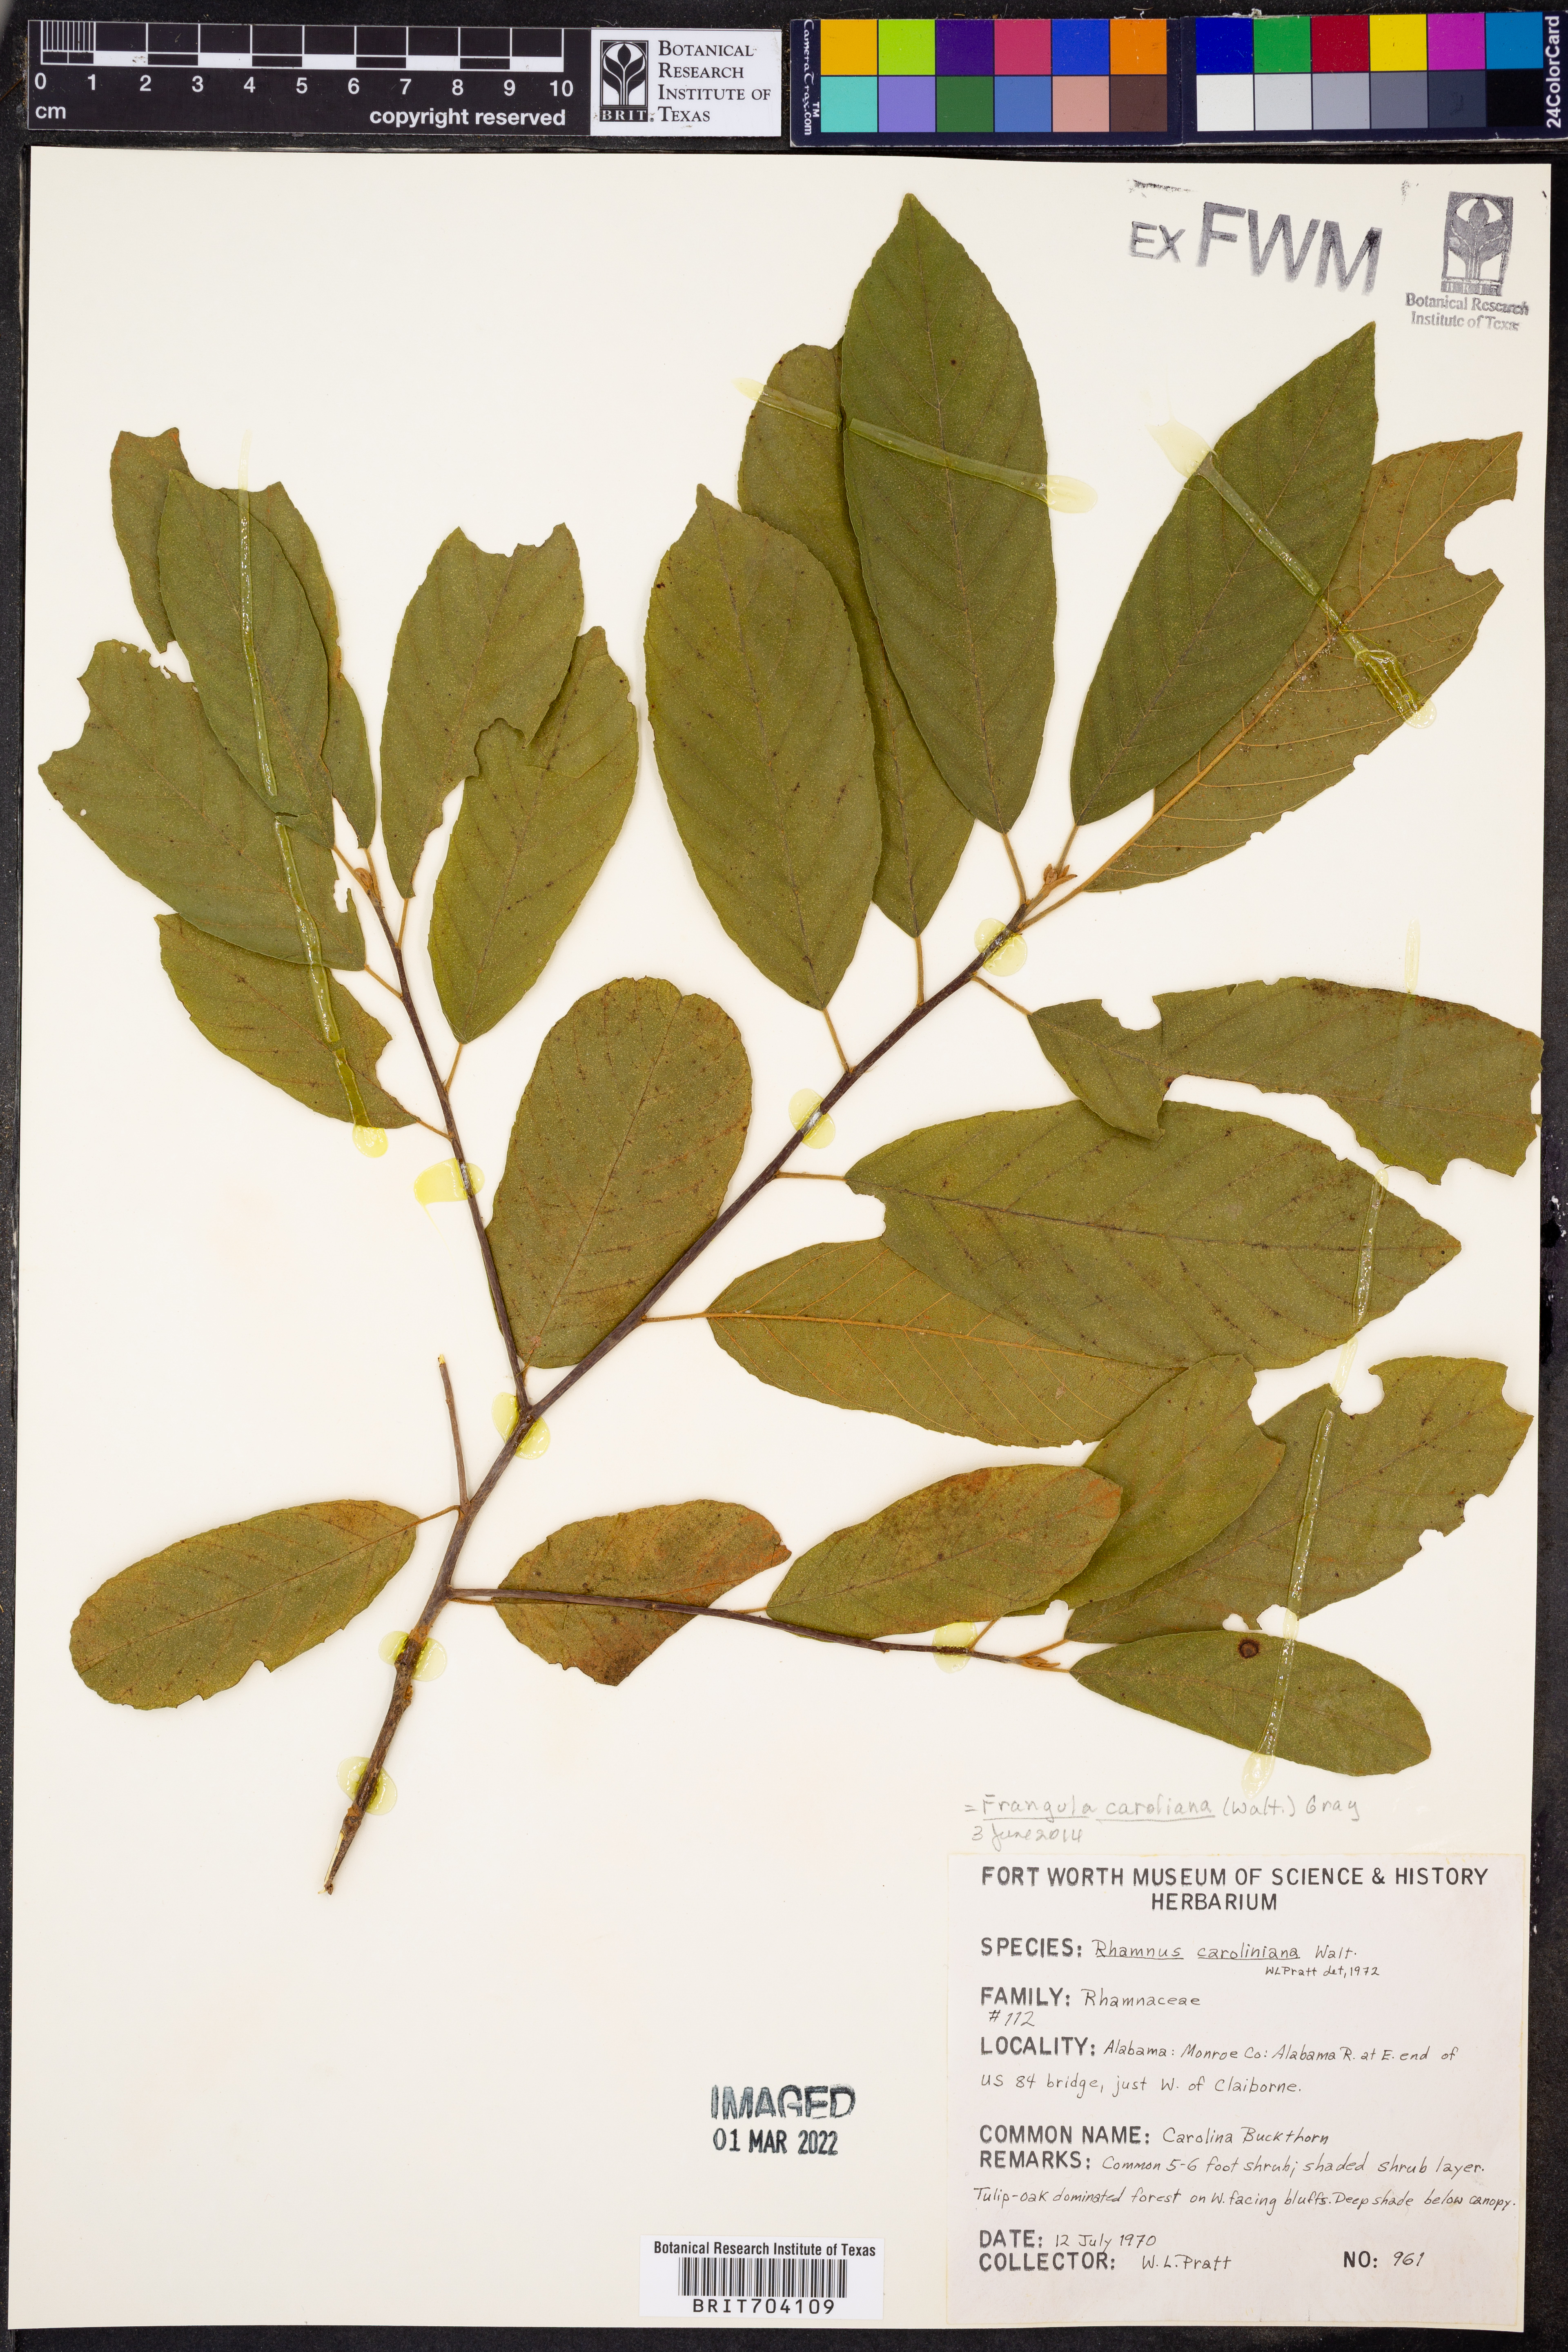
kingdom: Plantae
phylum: Tracheophyta
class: Magnoliopsida
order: Rosales
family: Rhamnaceae
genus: Frangula
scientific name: Frangula
